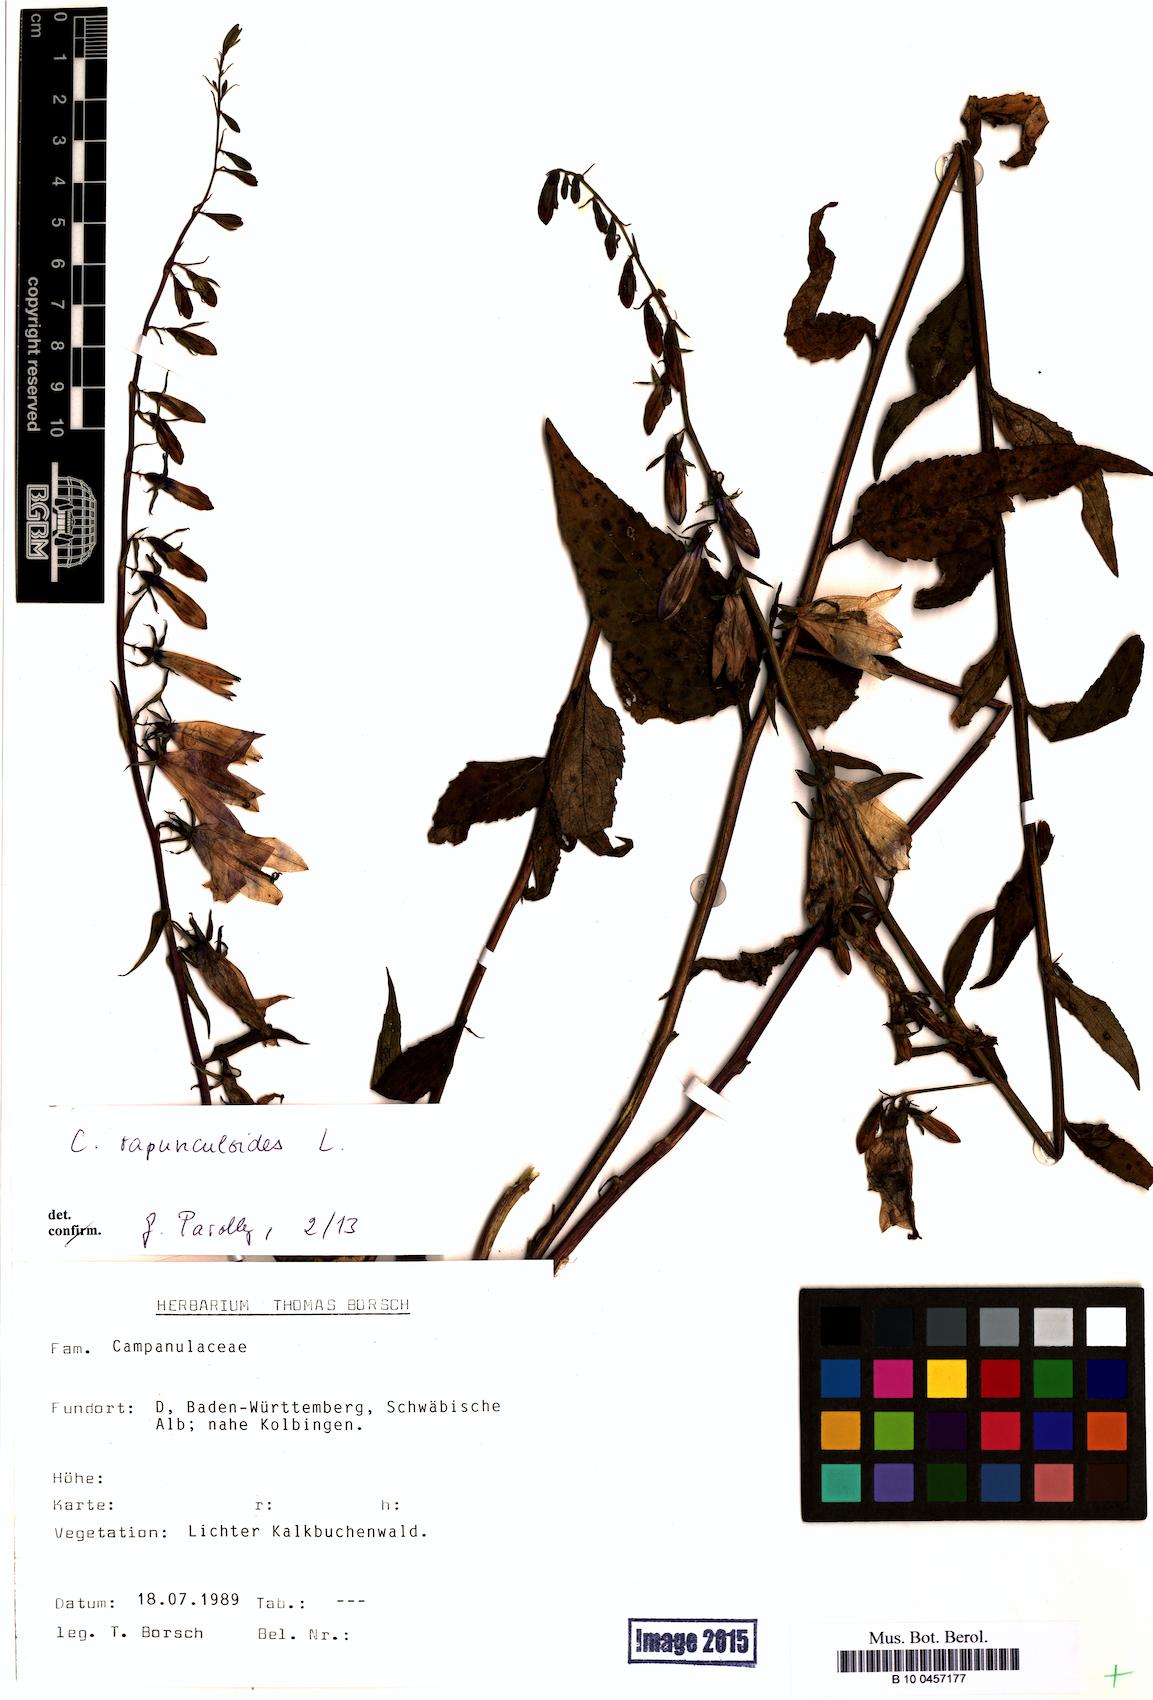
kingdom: Plantae
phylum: Tracheophyta
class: Magnoliopsida
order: Asterales
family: Campanulaceae
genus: Campanula
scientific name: Campanula rapunculoides
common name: Creeping bellflower
